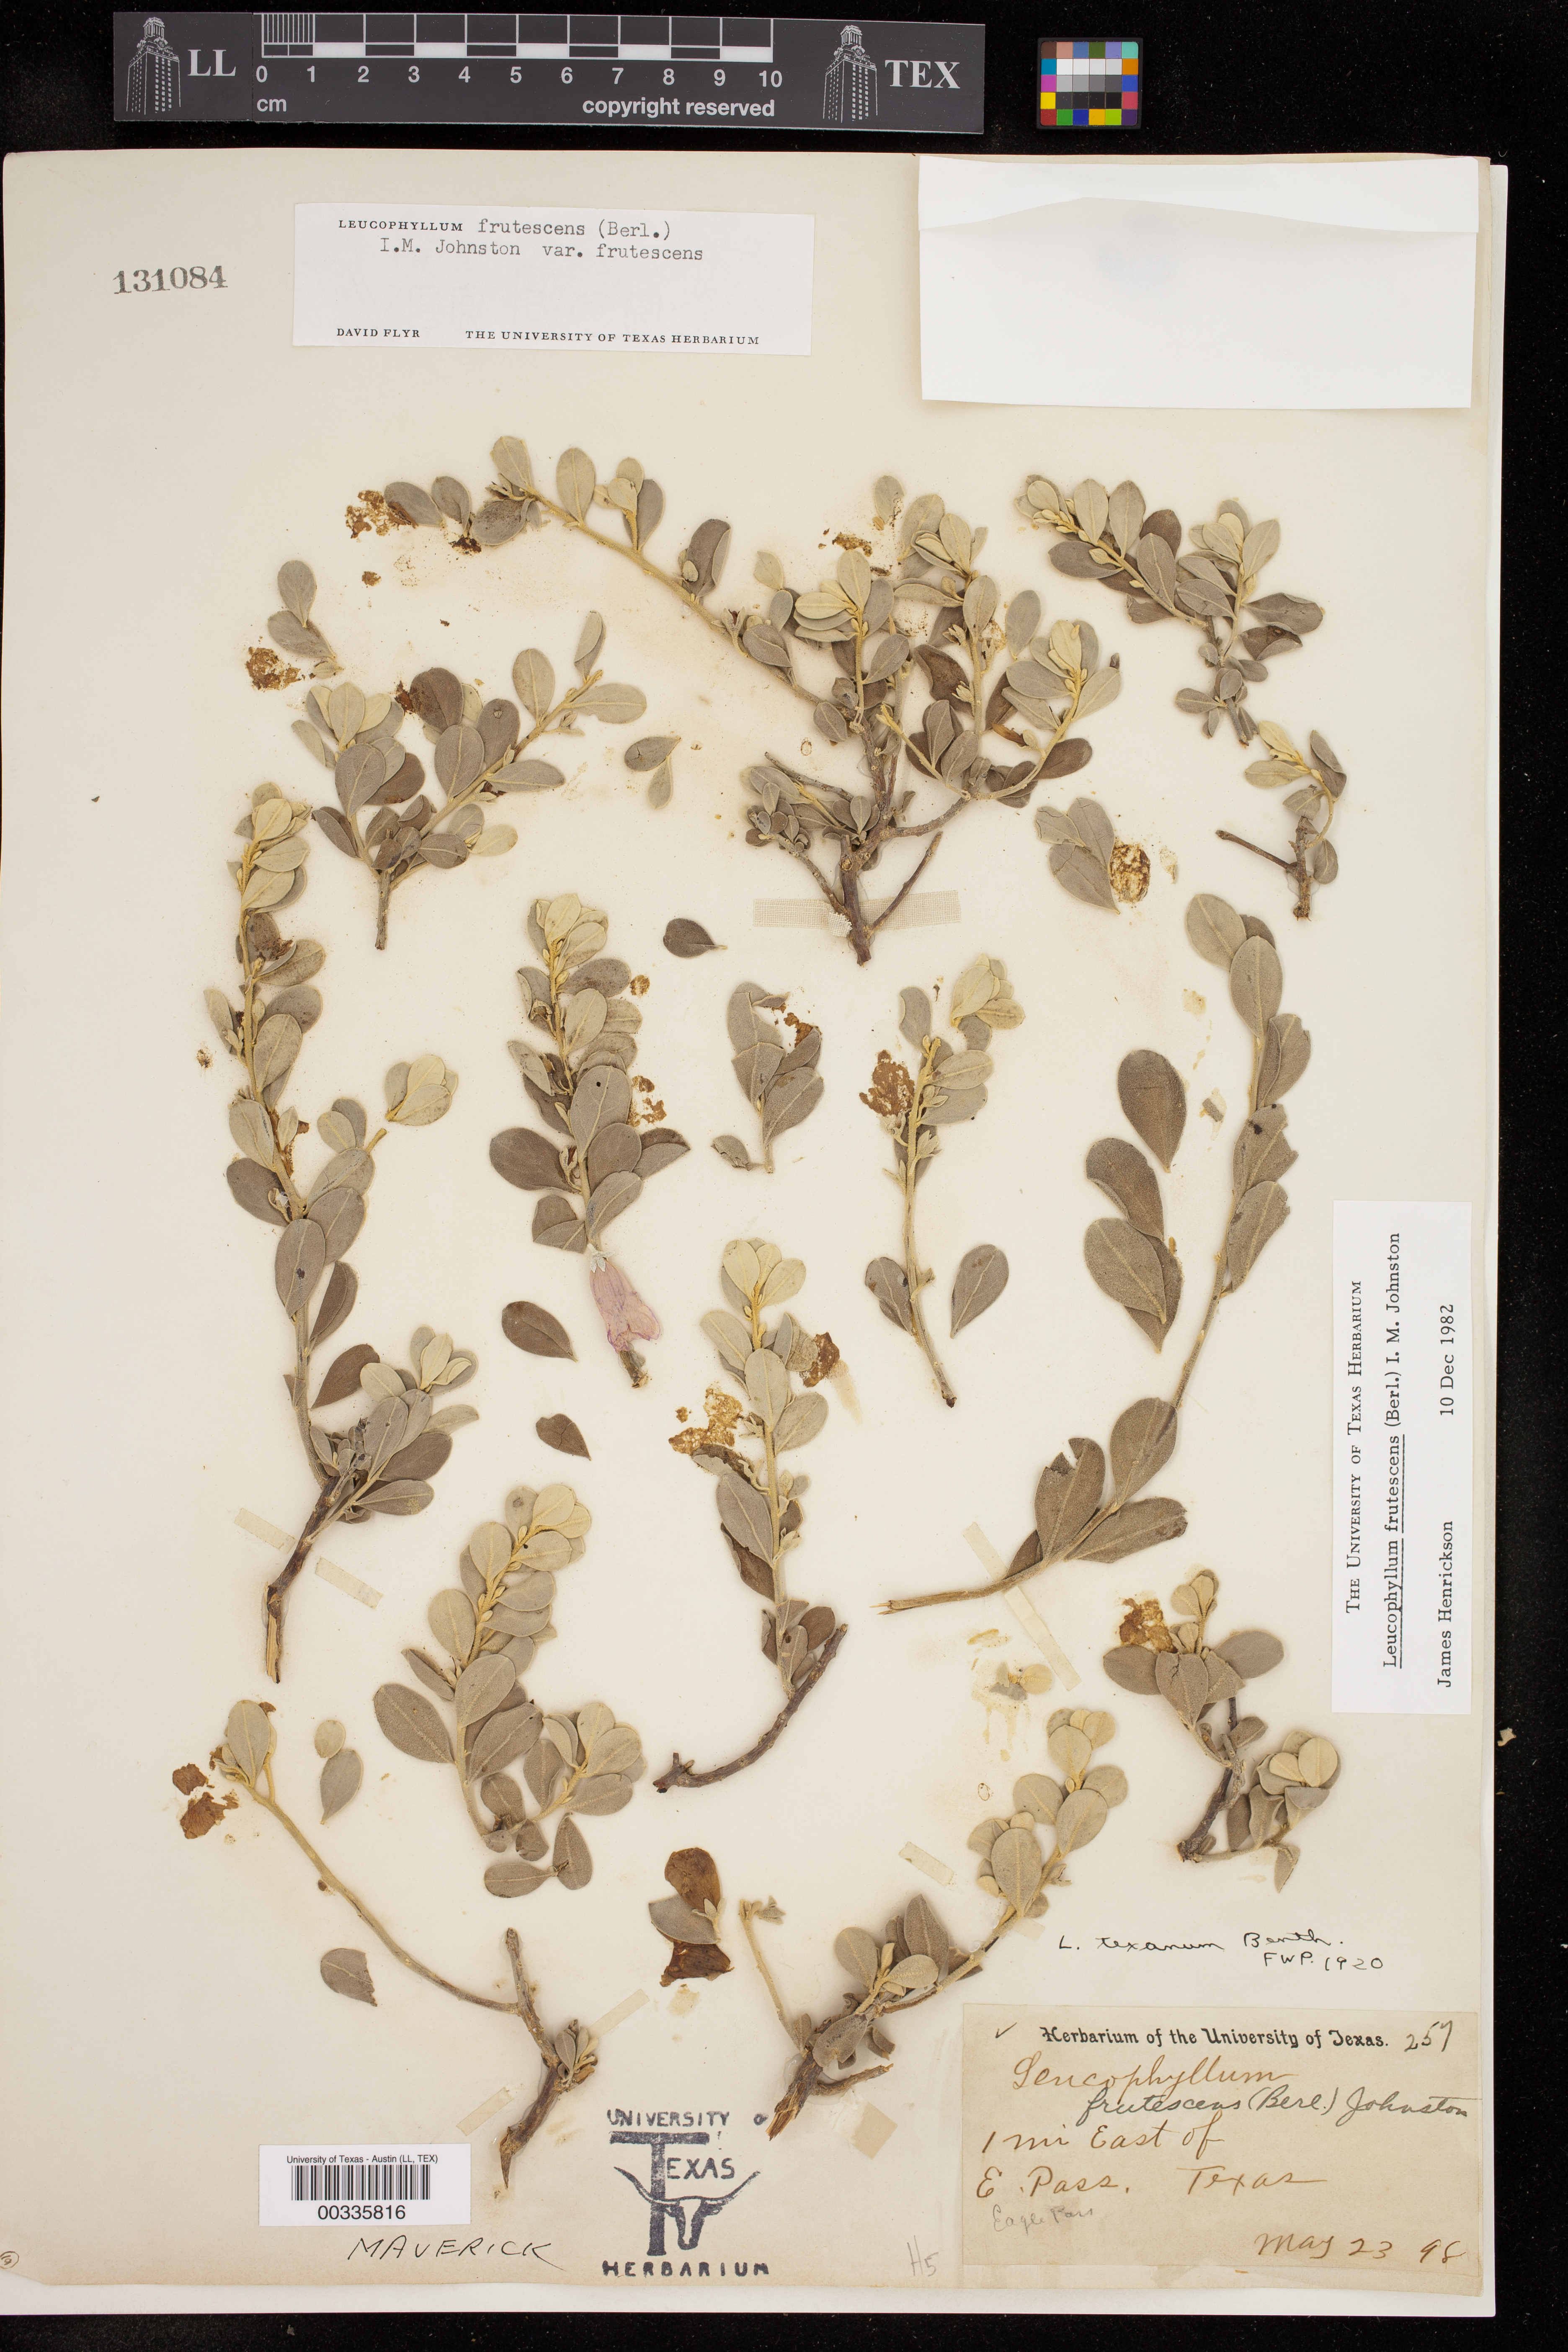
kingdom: Plantae
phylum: Tracheophyta
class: Magnoliopsida
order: Lamiales
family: Scrophulariaceae
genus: Leucophyllum
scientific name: Leucophyllum frutescens
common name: Texas silverleaf
